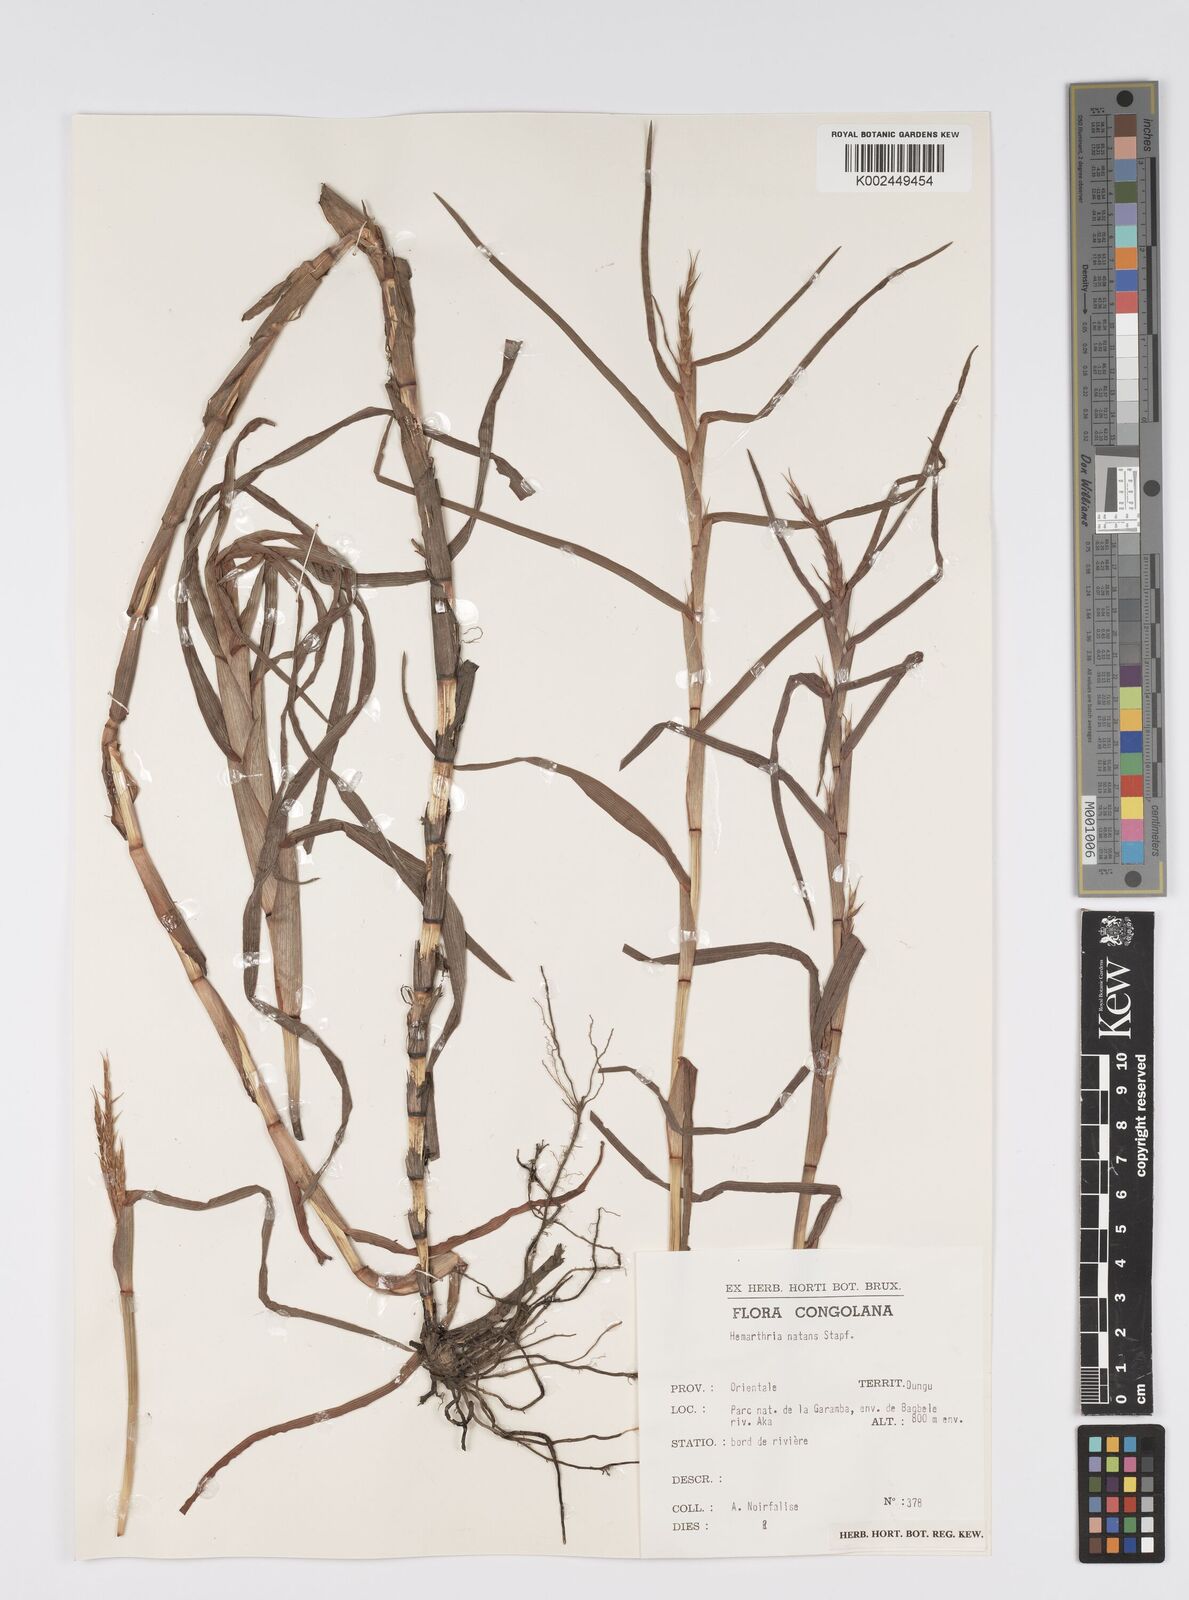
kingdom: Plantae
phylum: Tracheophyta
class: Liliopsida
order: Poales
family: Poaceae
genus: Hemarthria
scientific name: Hemarthria natans
